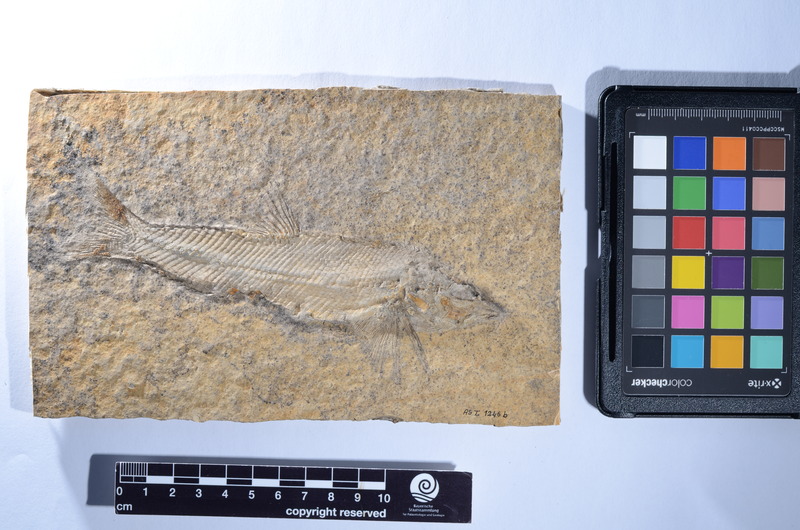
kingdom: Animalia
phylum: Chordata
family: Ophiopsiellidae
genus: Furo
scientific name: Furo longiserratus
